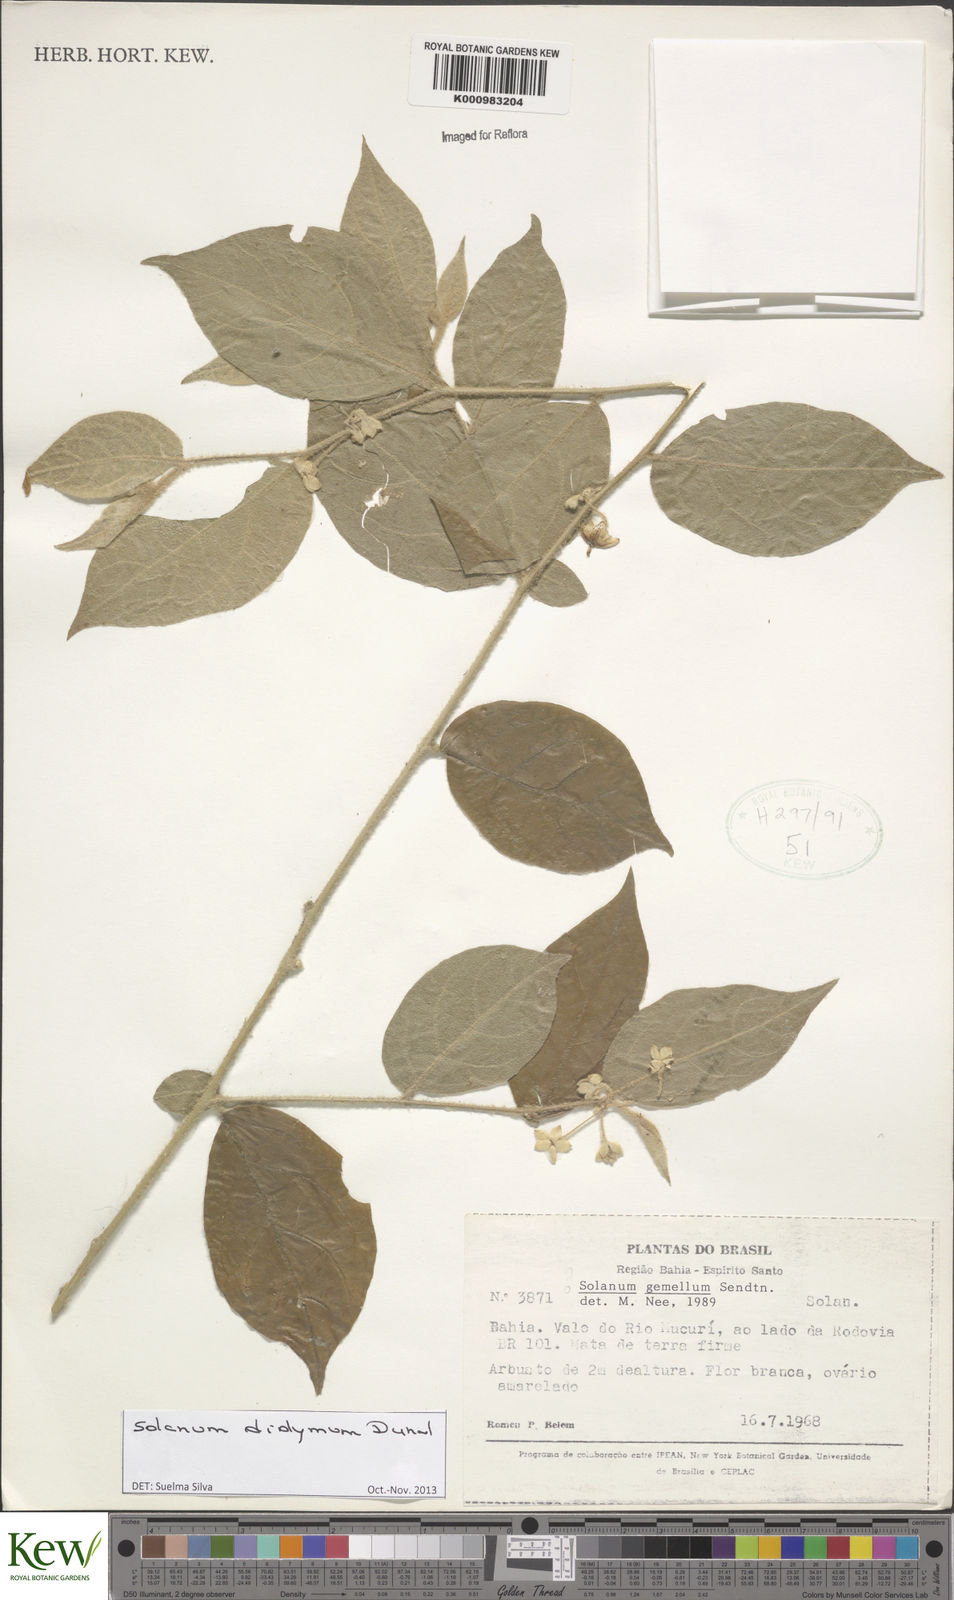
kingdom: Plantae
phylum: Tracheophyta
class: Magnoliopsida
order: Solanales
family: Solanaceae
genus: Solanum
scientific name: Solanum didymum
